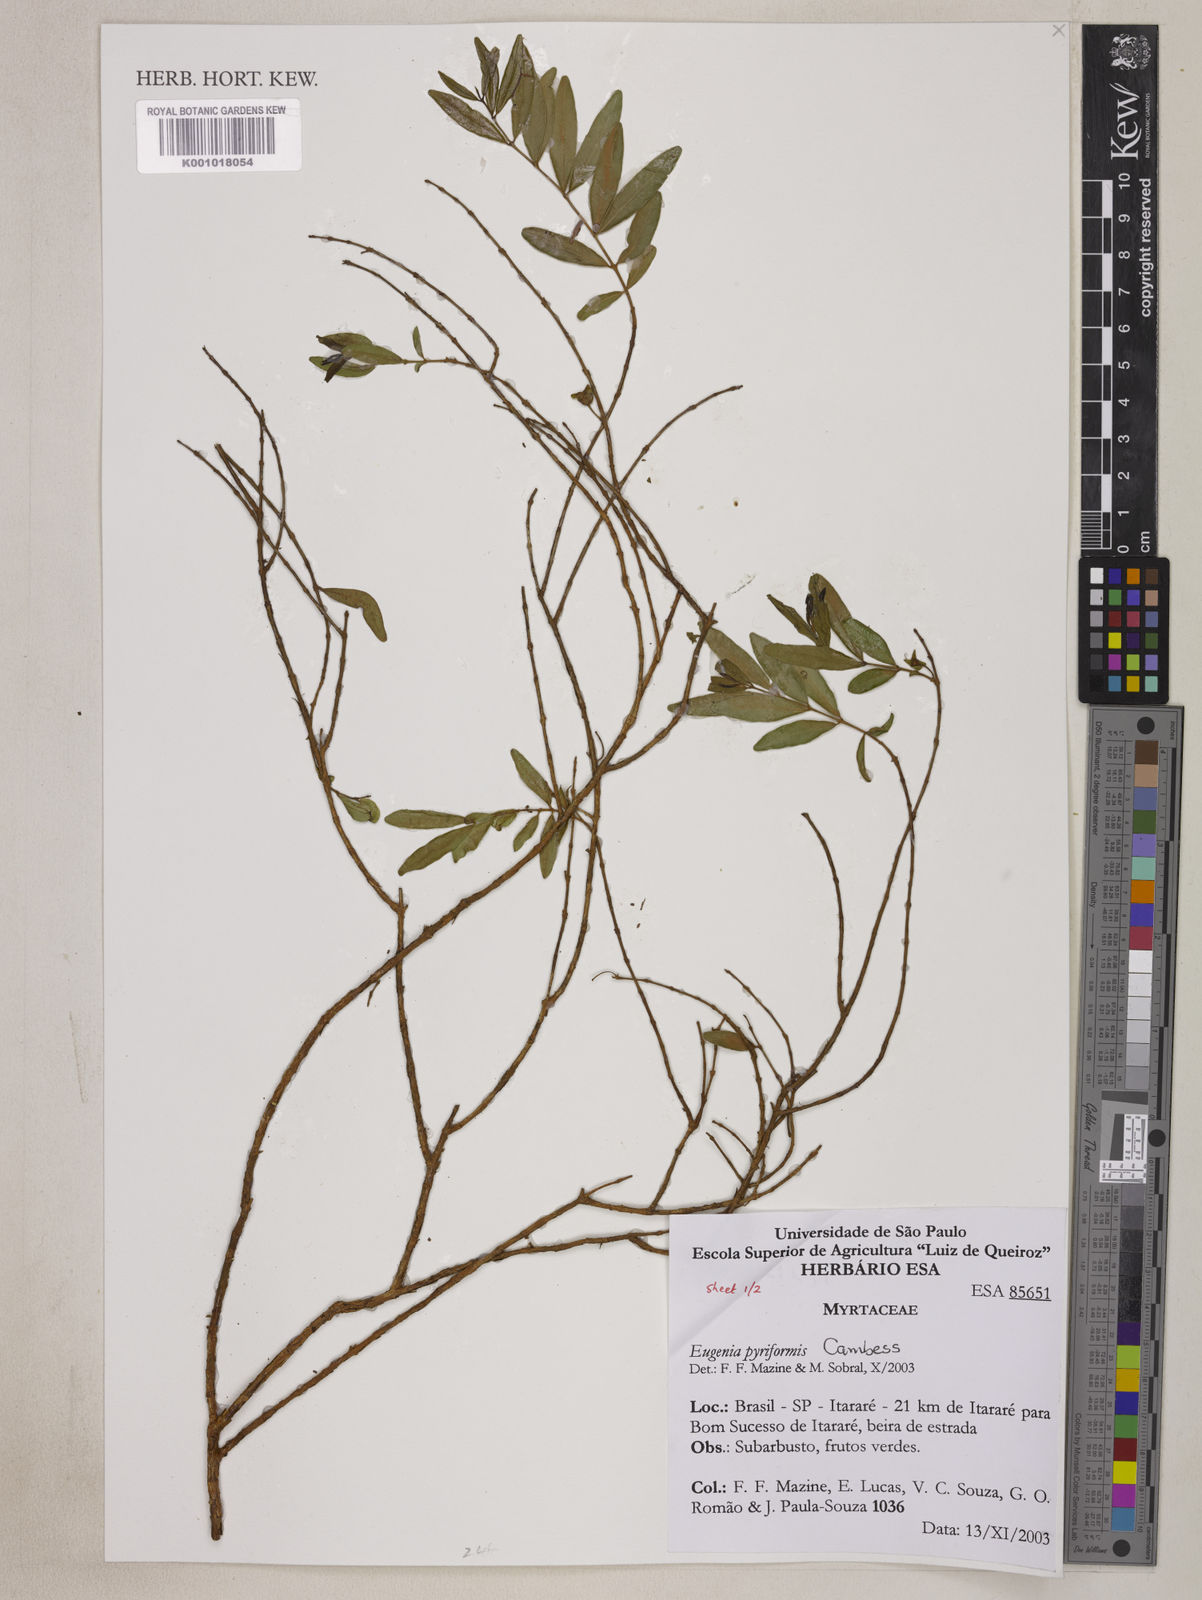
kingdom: Plantae
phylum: Tracheophyta
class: Magnoliopsida
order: Myrtales
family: Myrtaceae
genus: Eugenia
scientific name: Eugenia pyriformis
